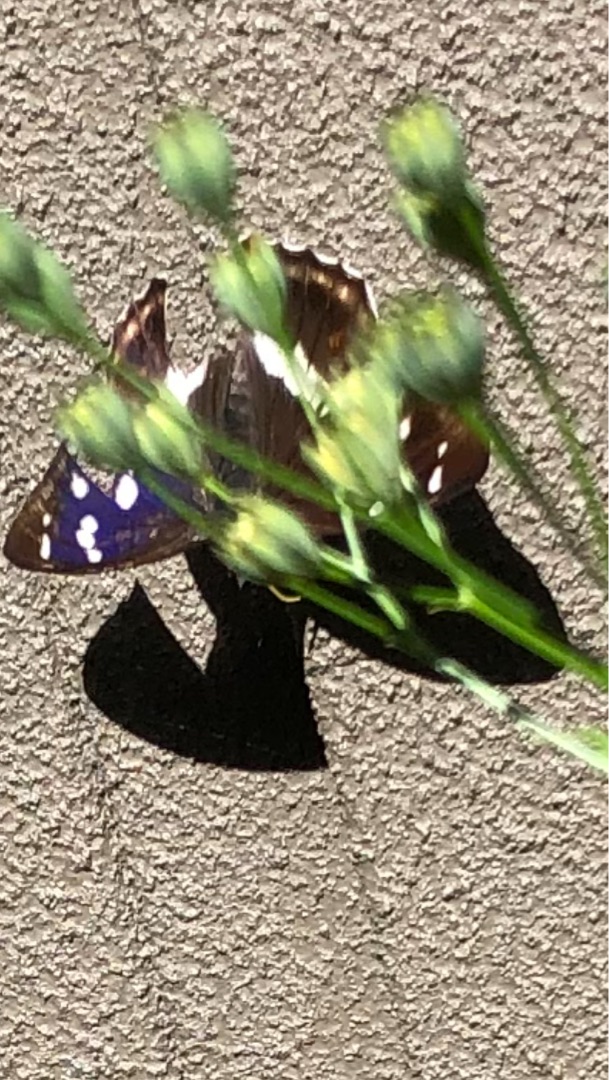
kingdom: Animalia
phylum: Arthropoda
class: Insecta
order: Lepidoptera
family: Nymphalidae
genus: Apatura
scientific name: Apatura iris
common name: Iris
